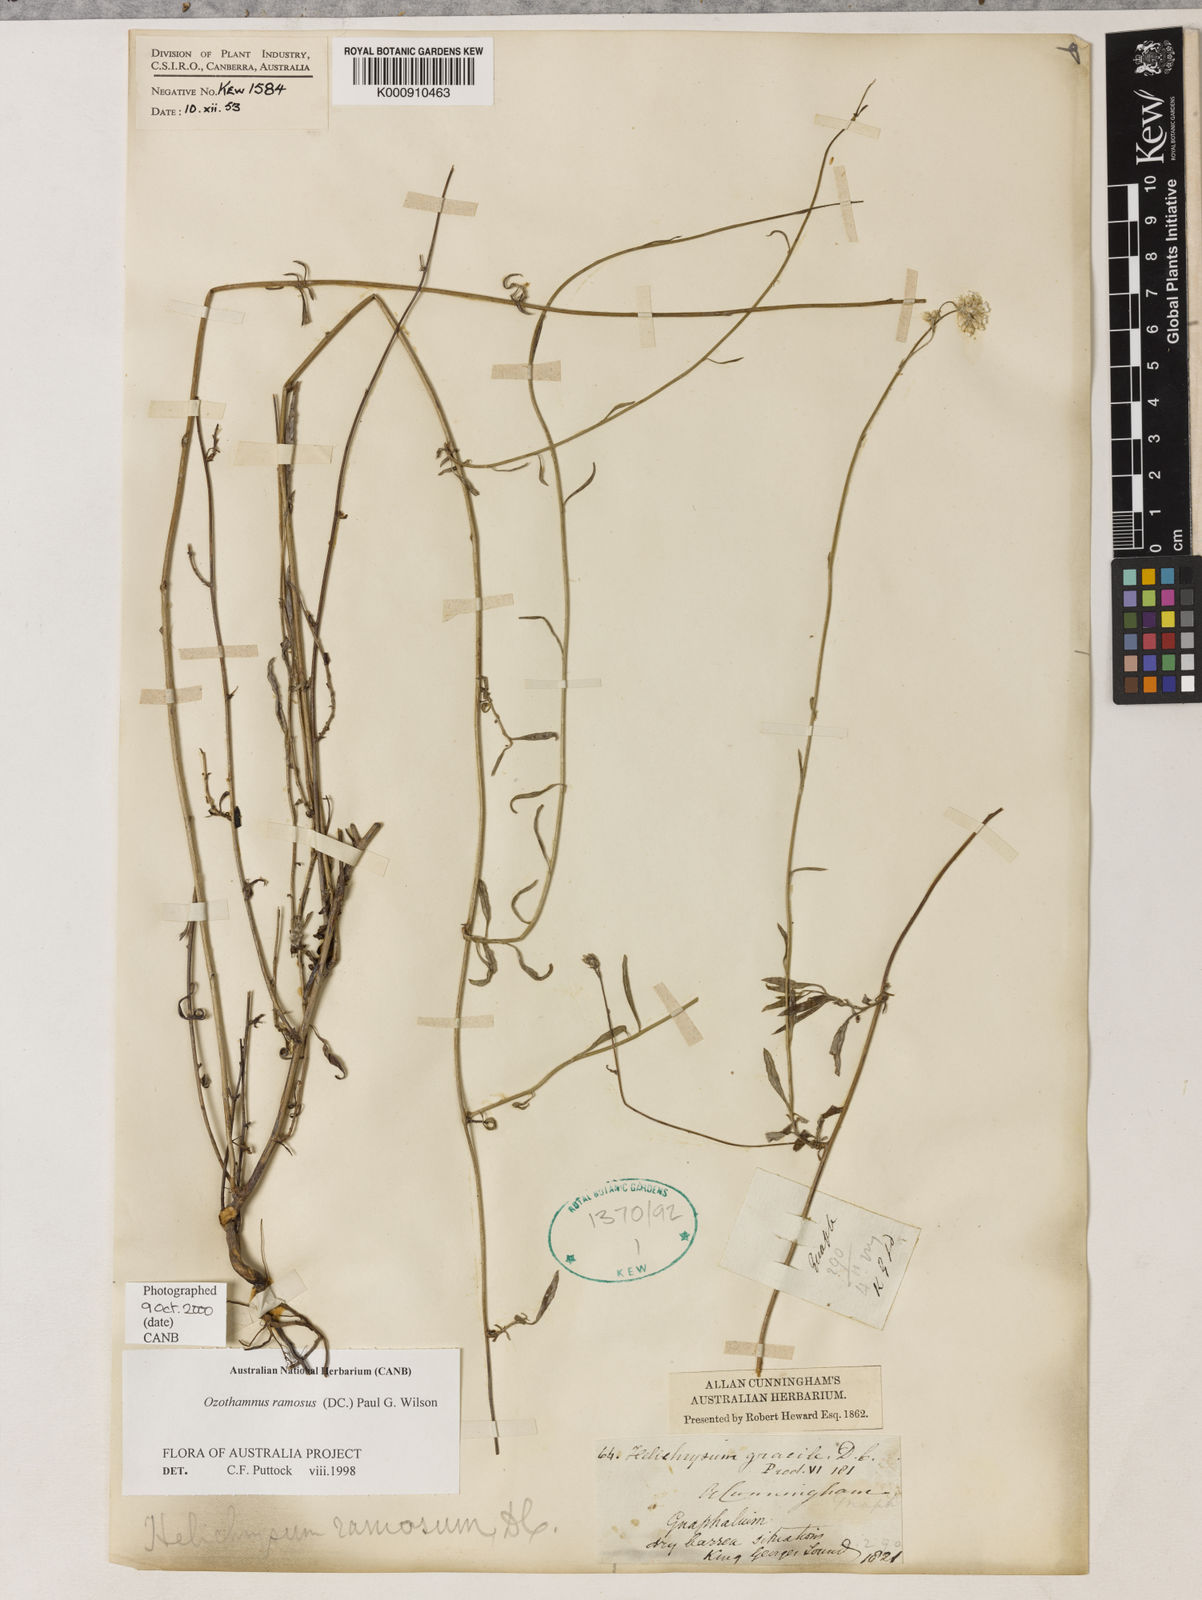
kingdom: Plantae
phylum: Tracheophyta
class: Magnoliopsida
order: Asterales
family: Asteraceae
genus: Pithocarpa
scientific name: Pithocarpa ramosa
